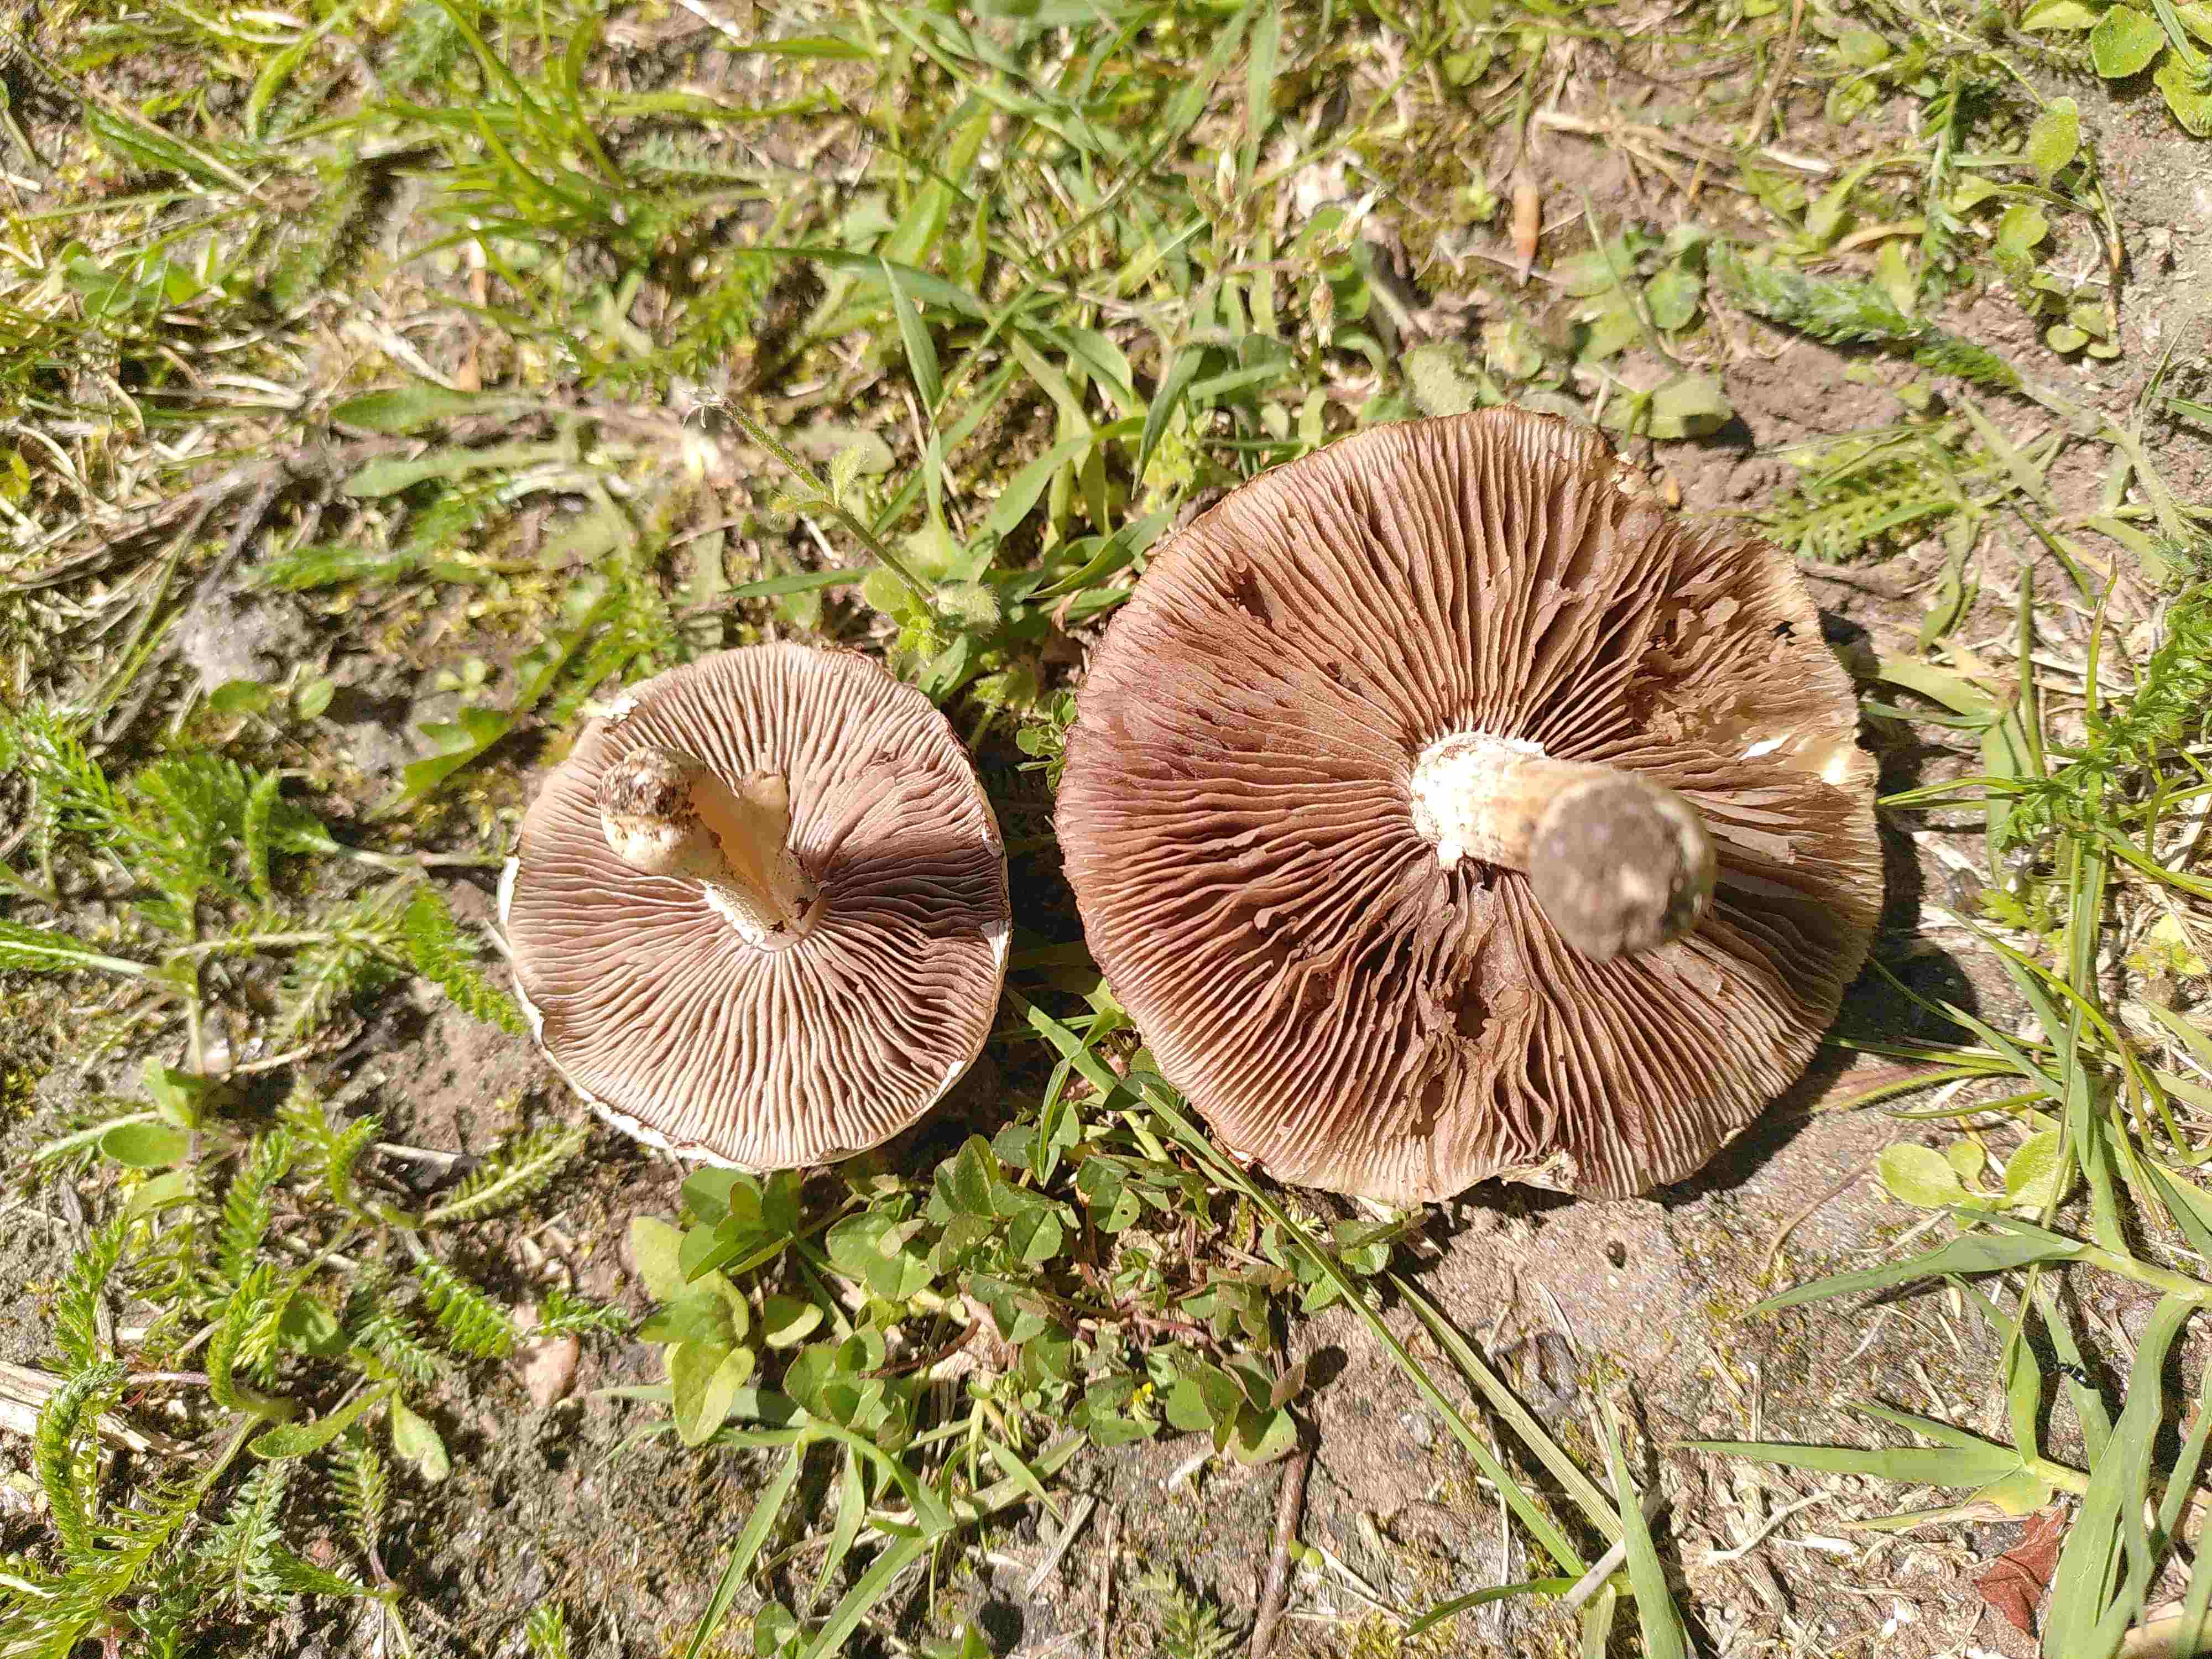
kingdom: Fungi
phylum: Basidiomycota
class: Agaricomycetes
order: Agaricales
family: Hymenogastraceae
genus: Psilocybe
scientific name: Psilocybe coronilla
